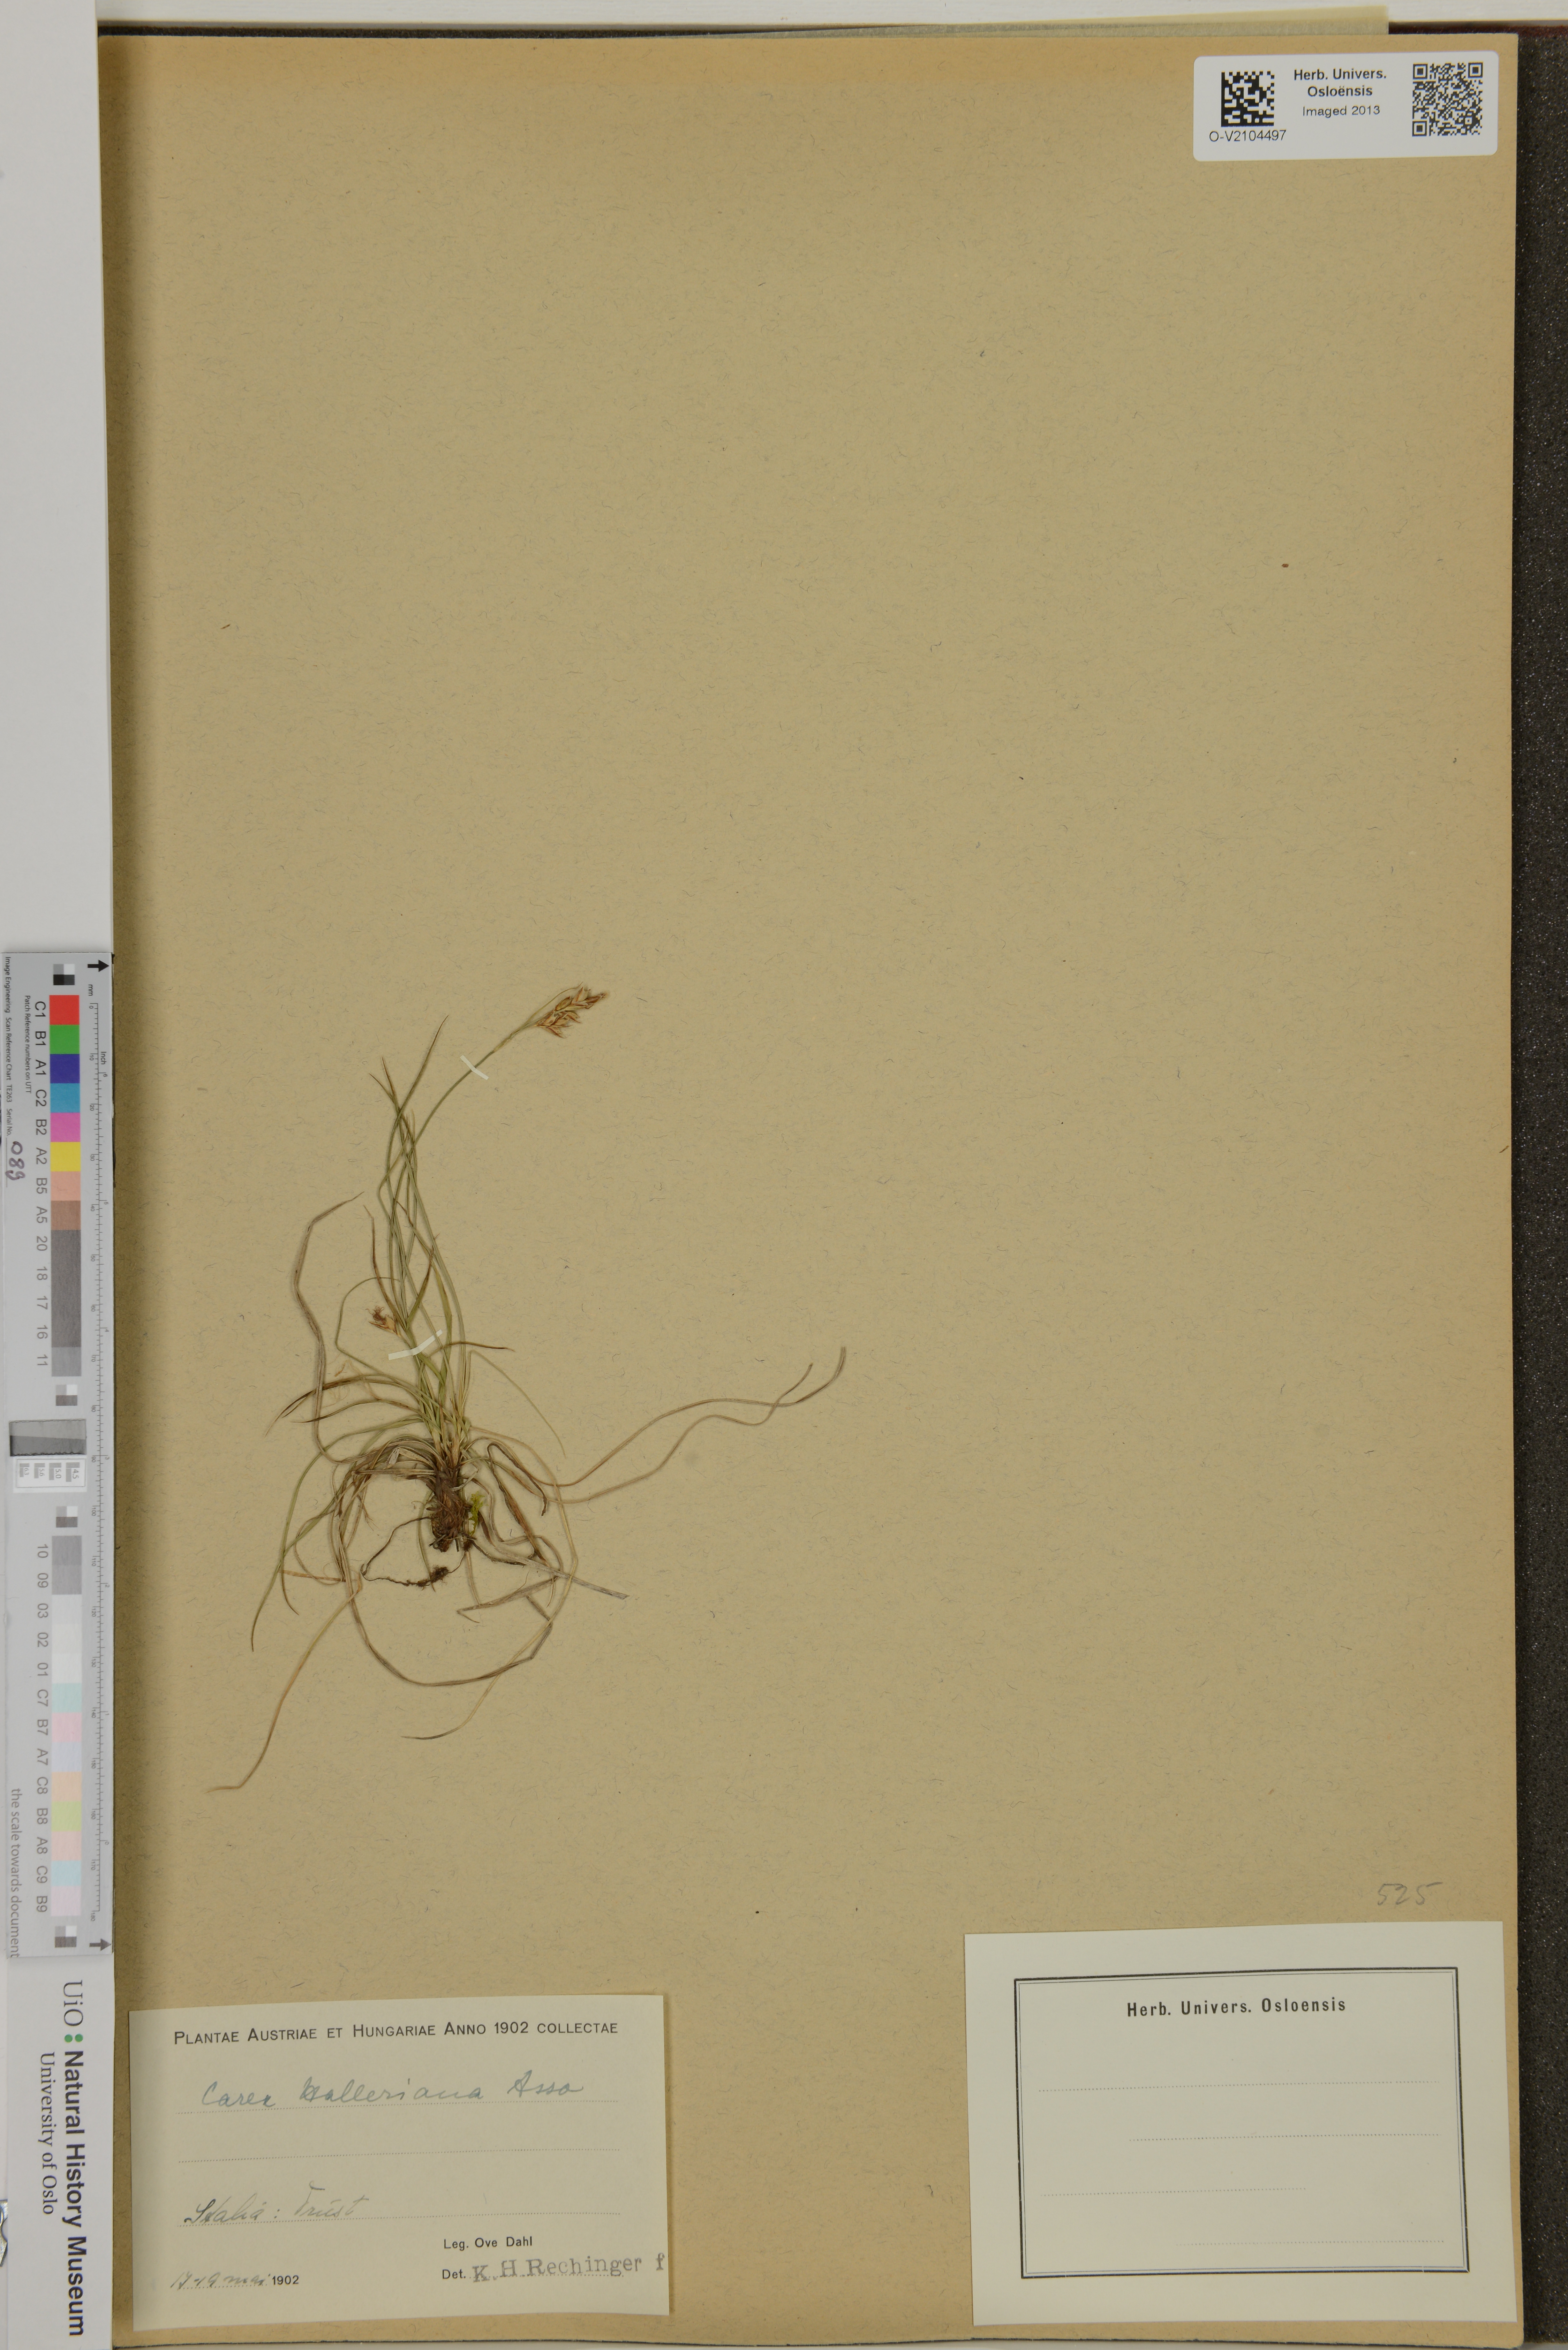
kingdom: Plantae
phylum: Tracheophyta
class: Liliopsida
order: Poales
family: Cyperaceae
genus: Carex
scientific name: Carex halleriana
